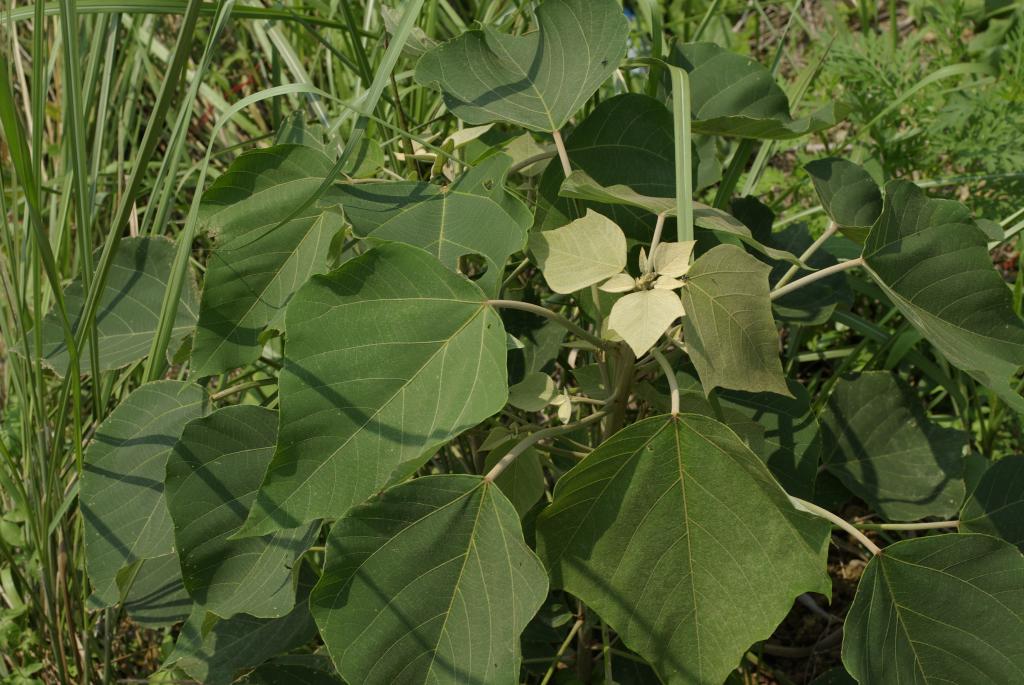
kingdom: Plantae
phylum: Tracheophyta
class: Magnoliopsida
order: Malpighiales
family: Euphorbiaceae
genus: Mallotus
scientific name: Mallotus paniculatus
